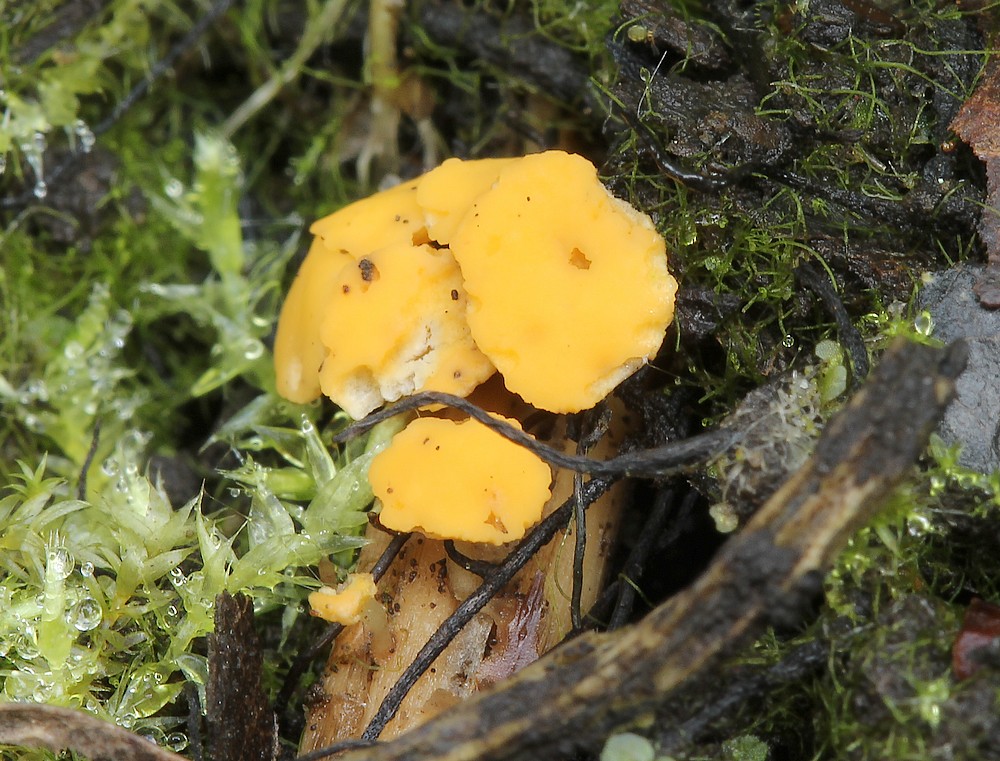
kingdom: Fungi
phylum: Ascomycota
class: Leotiomycetes
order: Helotiales
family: Helotiaceae
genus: Hymenoscyphus
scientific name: Hymenoscyphus
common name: stilkskive
